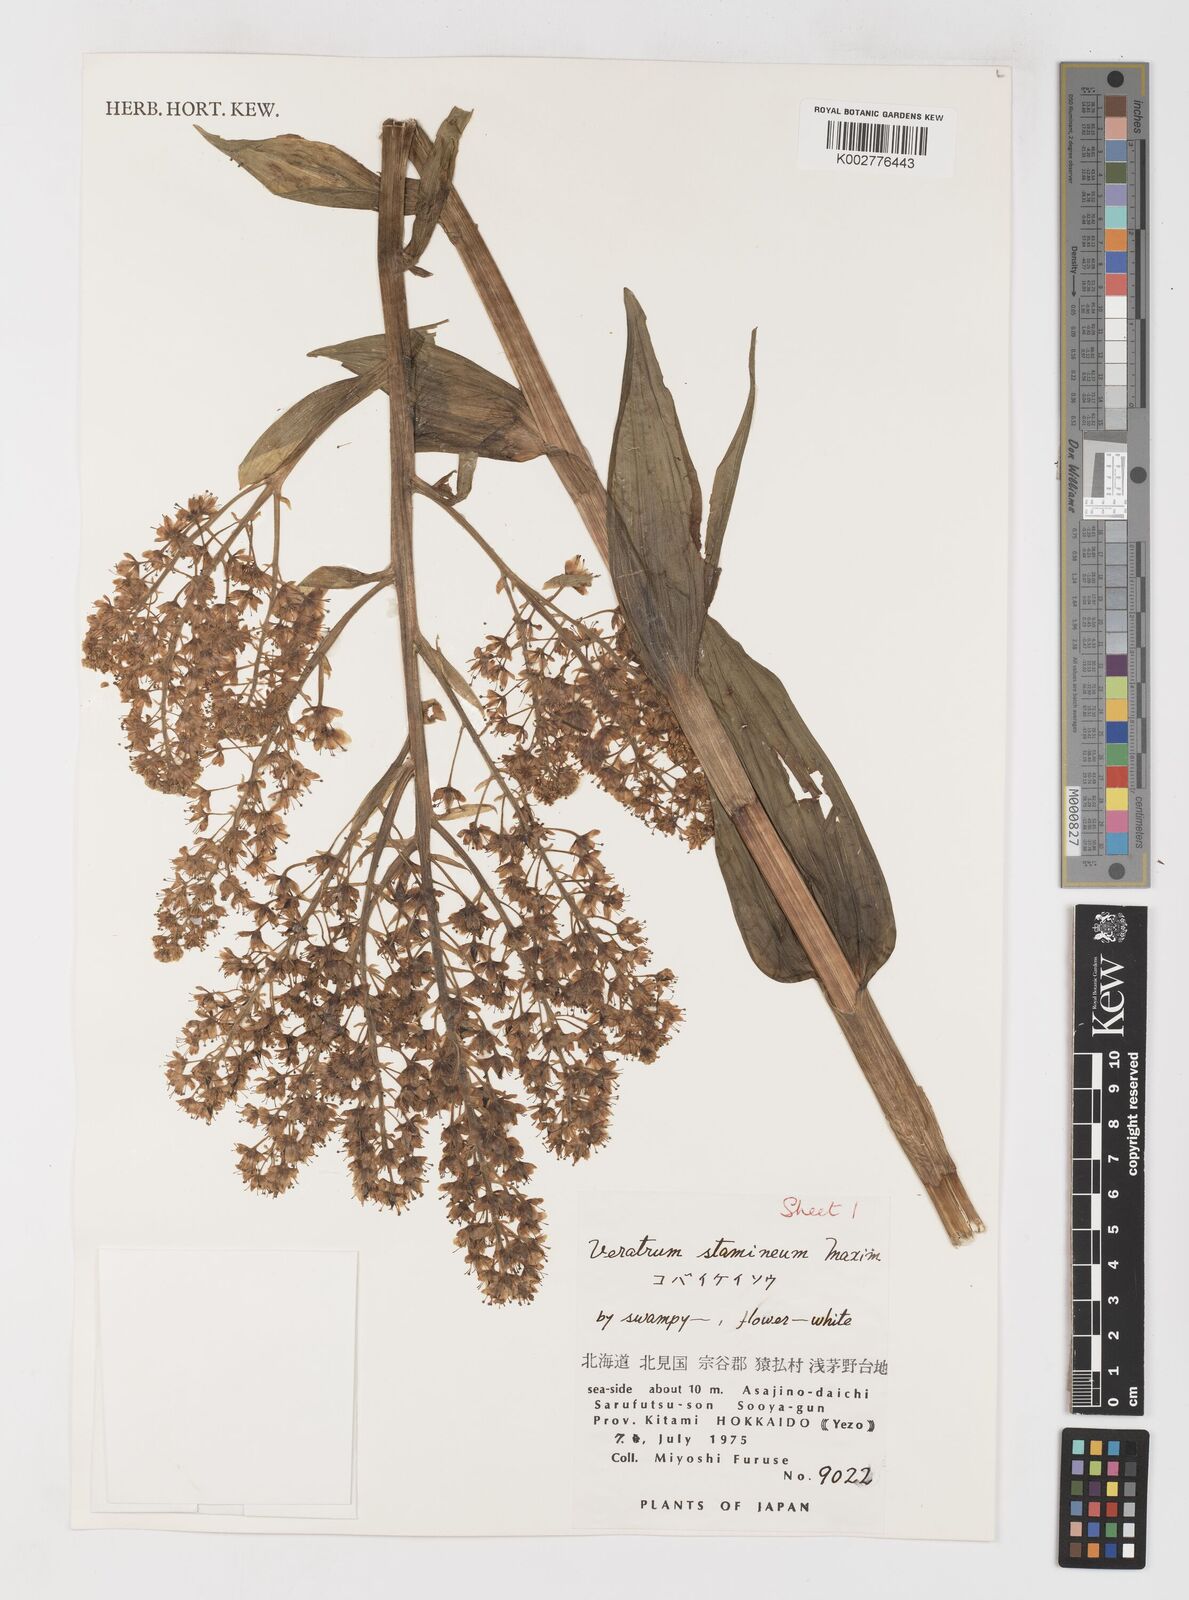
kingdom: Plantae
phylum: Tracheophyta
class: Liliopsida
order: Liliales
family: Melanthiaceae
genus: Veratrum
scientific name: Veratrum stamineum
